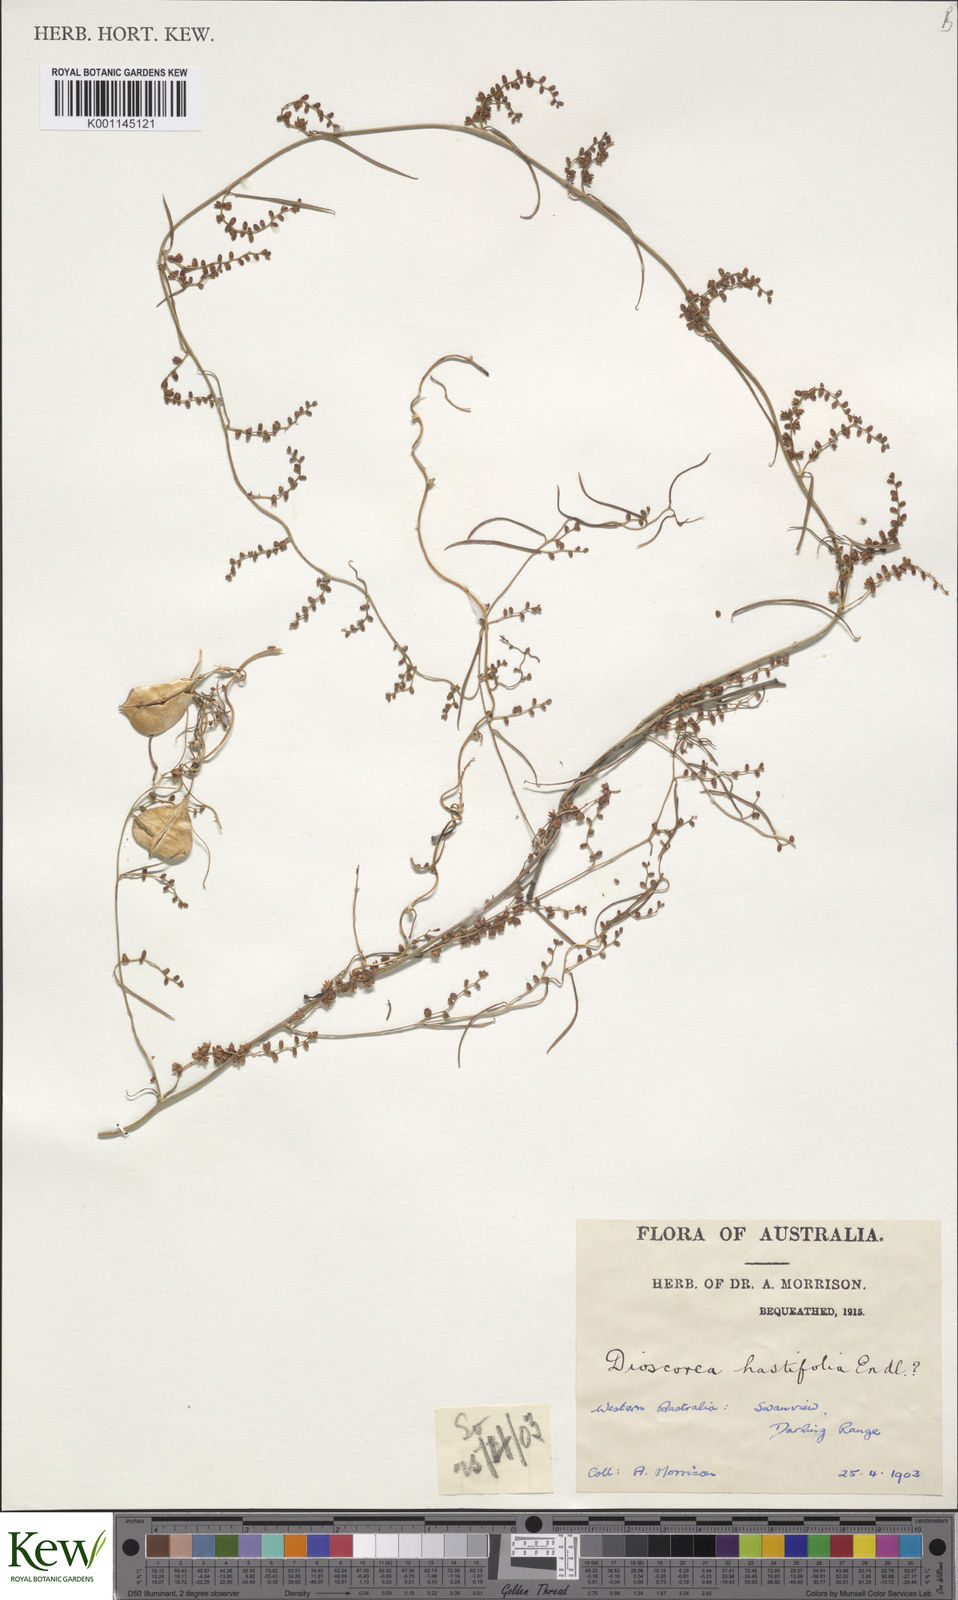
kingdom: Plantae
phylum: Tracheophyta
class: Liliopsida
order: Dioscoreales
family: Dioscoreaceae
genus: Dioscorea
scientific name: Dioscorea hastifolia
